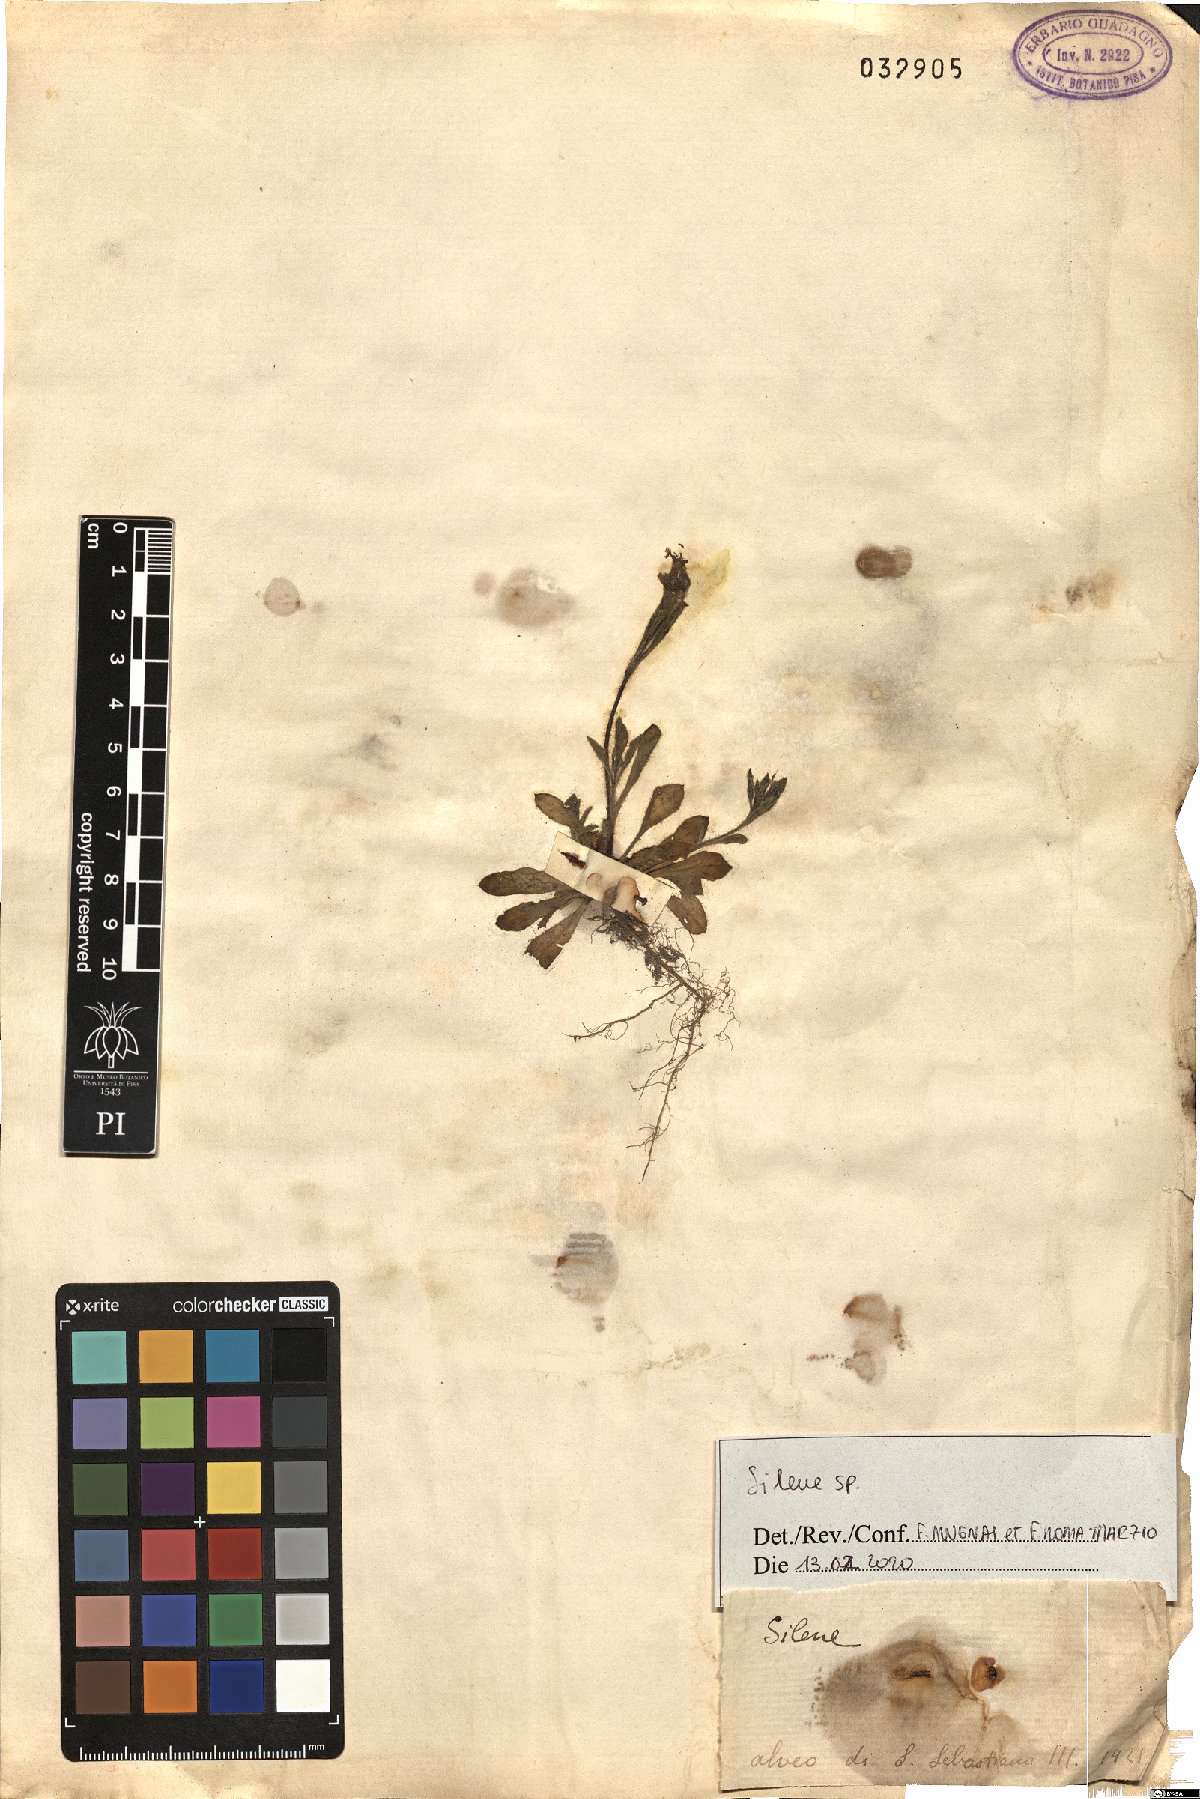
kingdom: Plantae
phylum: Tracheophyta
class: Magnoliopsida
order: Caryophyllales
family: Caryophyllaceae
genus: Silene
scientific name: Silene
